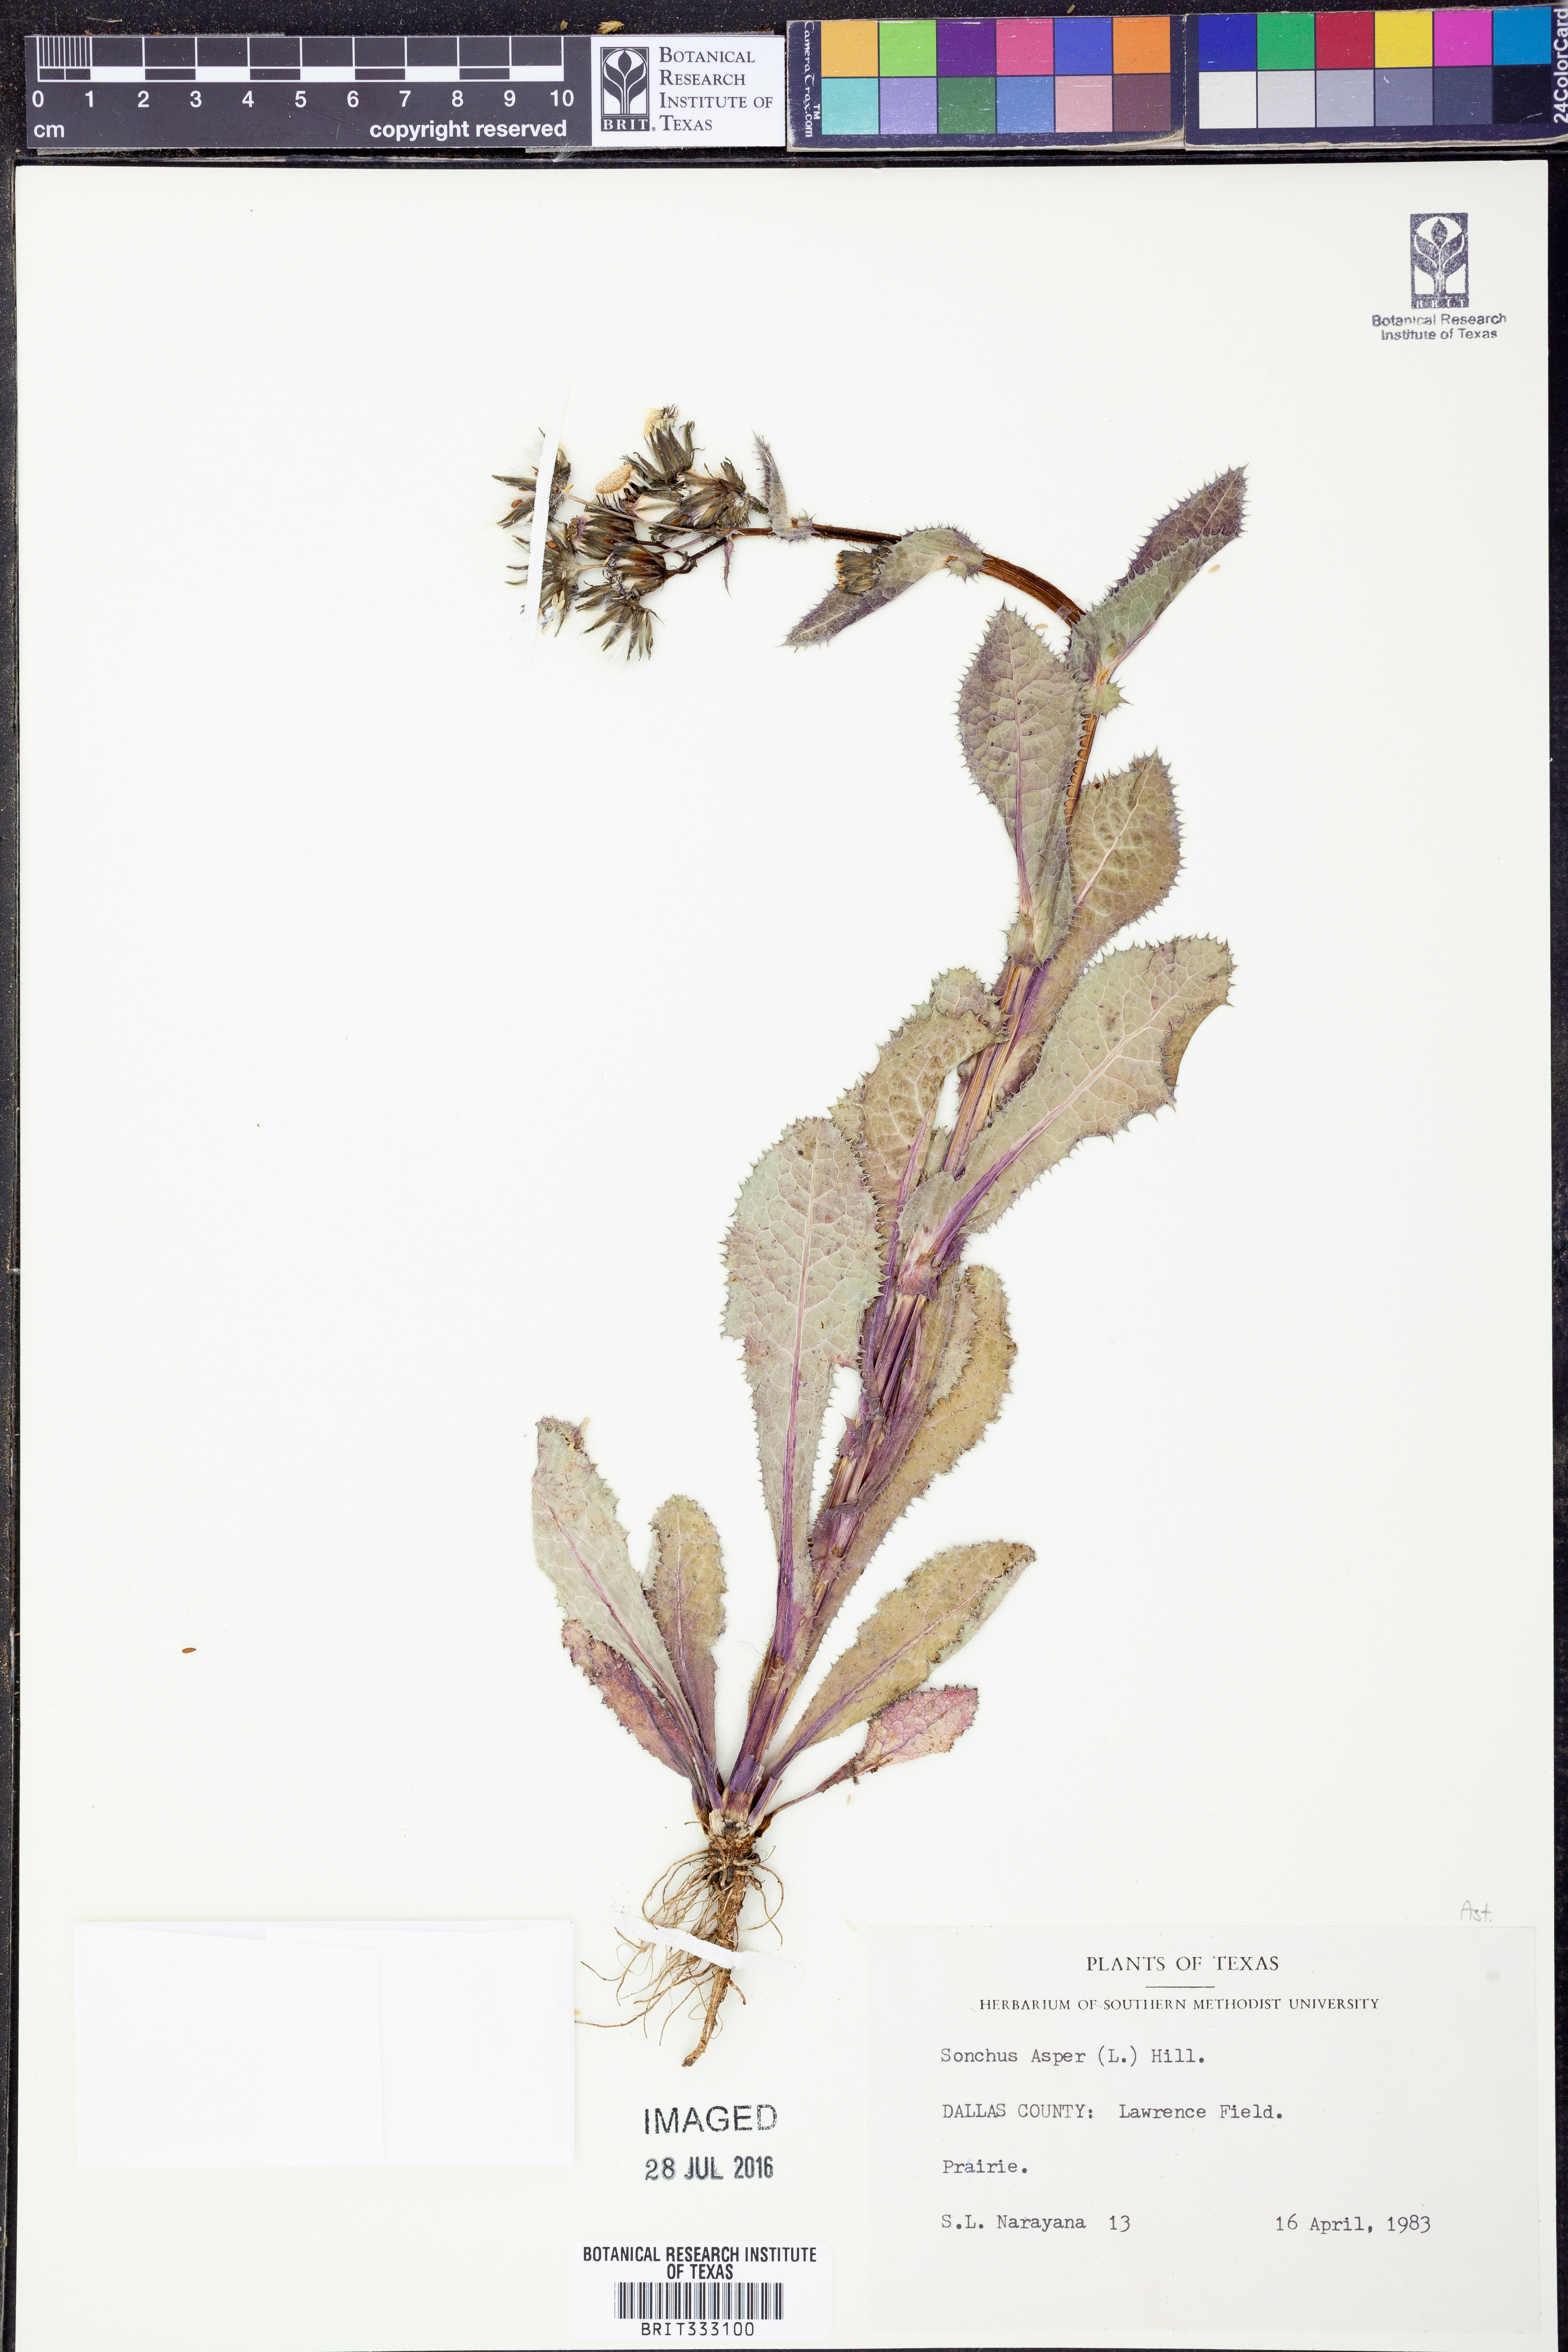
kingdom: Plantae
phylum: Tracheophyta
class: Magnoliopsida
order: Asterales
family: Asteraceae
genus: Sonchus
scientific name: Sonchus asper
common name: Prickly sow-thistle
